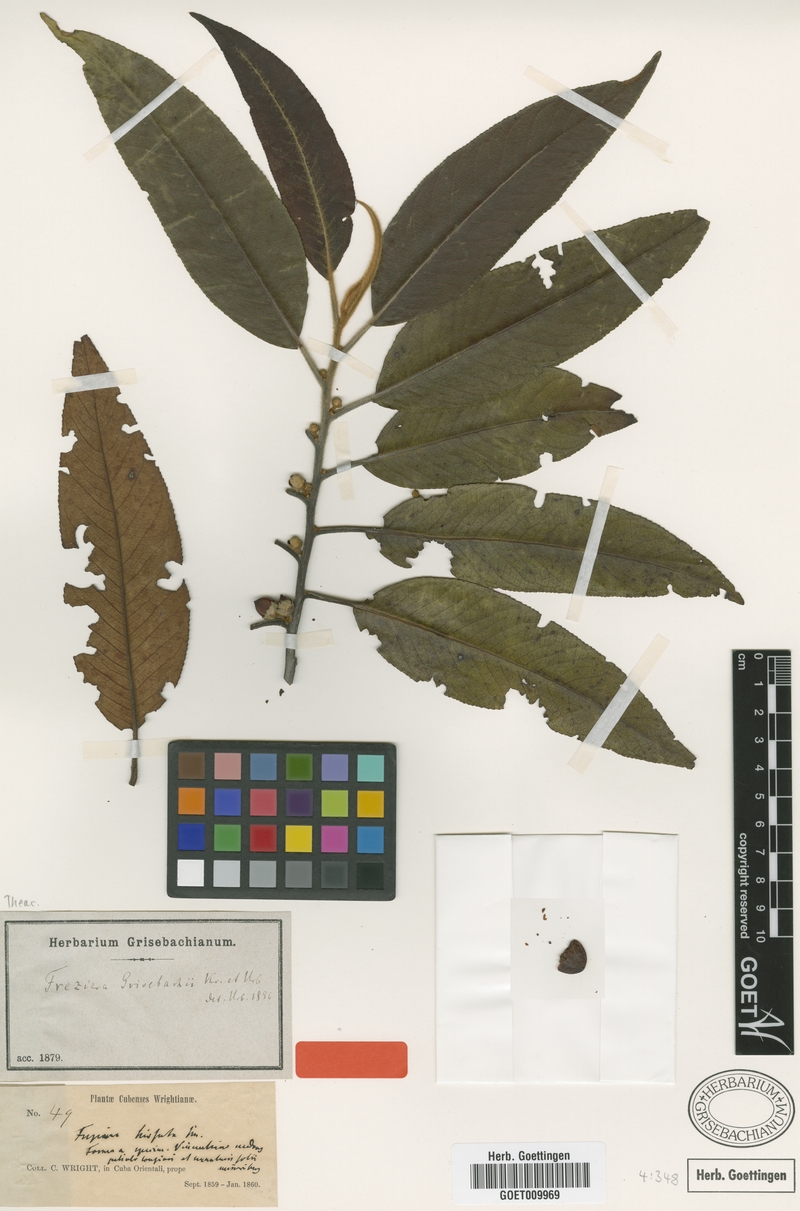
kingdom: Plantae
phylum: Tracheophyta
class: Magnoliopsida
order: Ericales
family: Pentaphylacaceae
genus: Freziera
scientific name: Freziera grisebachii
